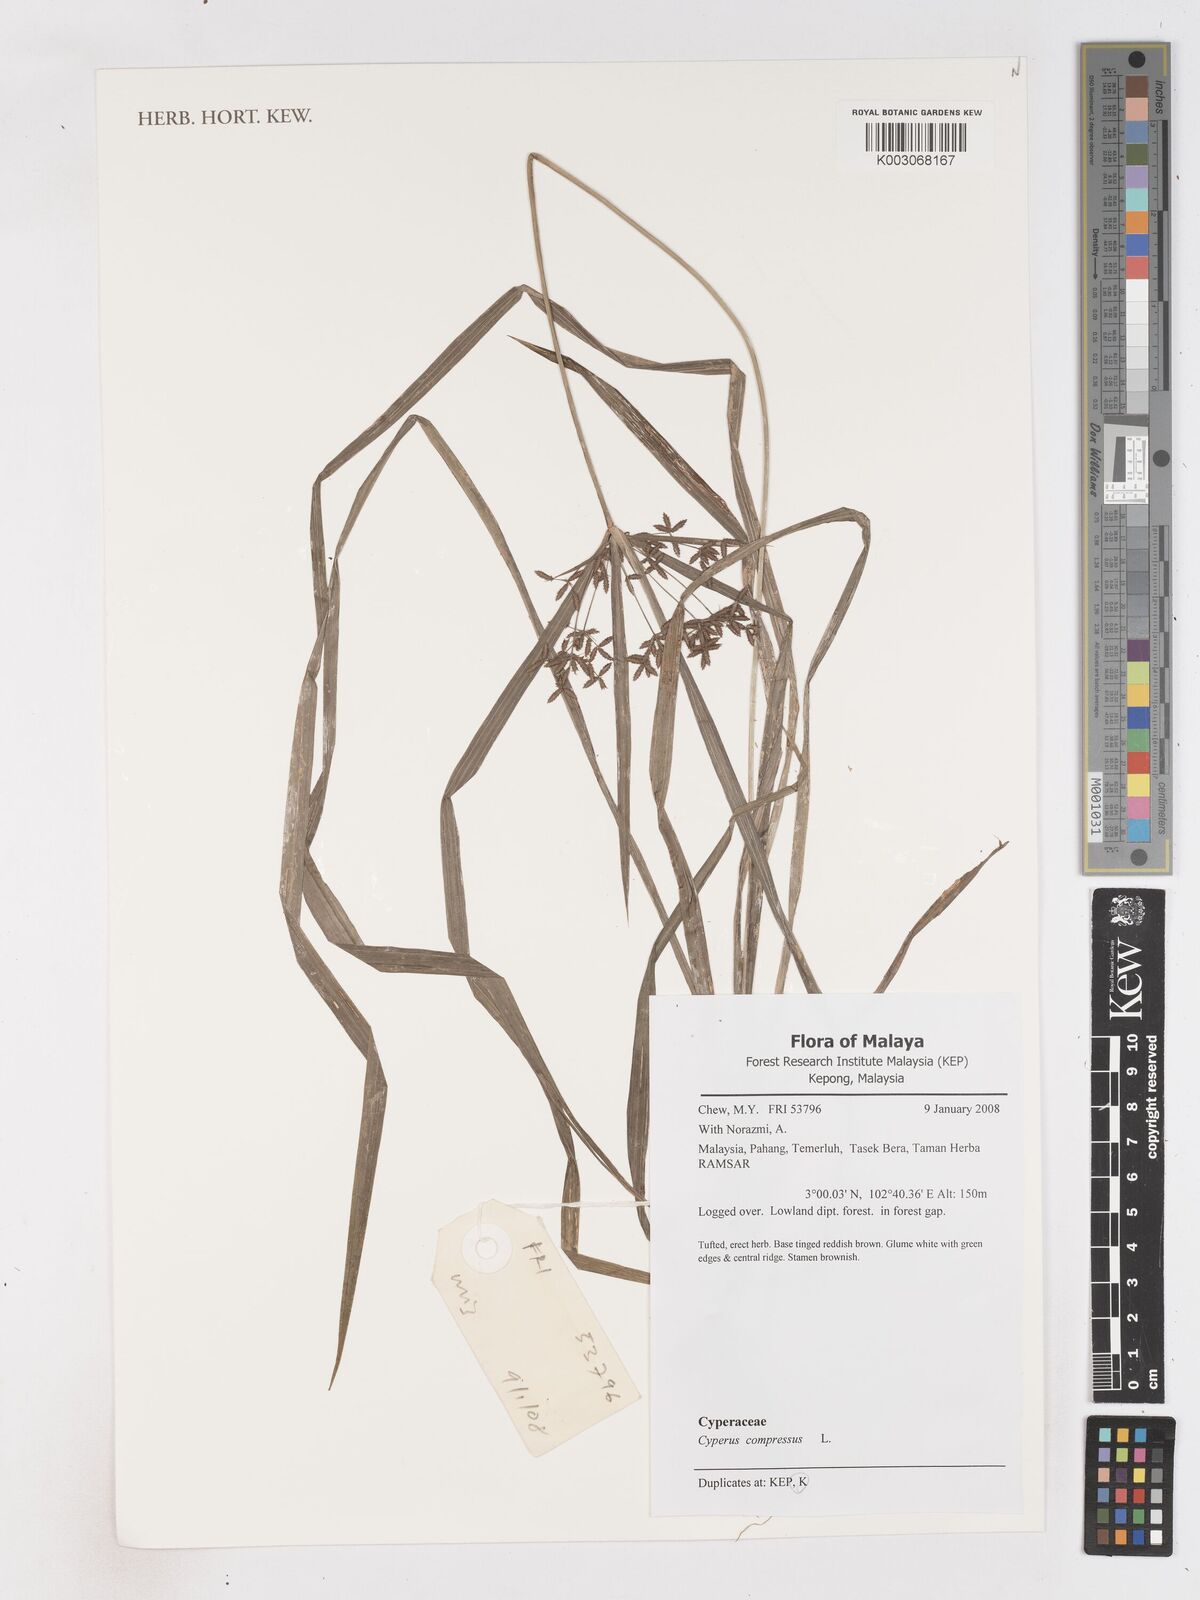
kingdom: Plantae
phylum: Tracheophyta
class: Liliopsida
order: Poales
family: Cyperaceae
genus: Cyperus
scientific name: Cyperus compressus
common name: Poorland flatsedge
